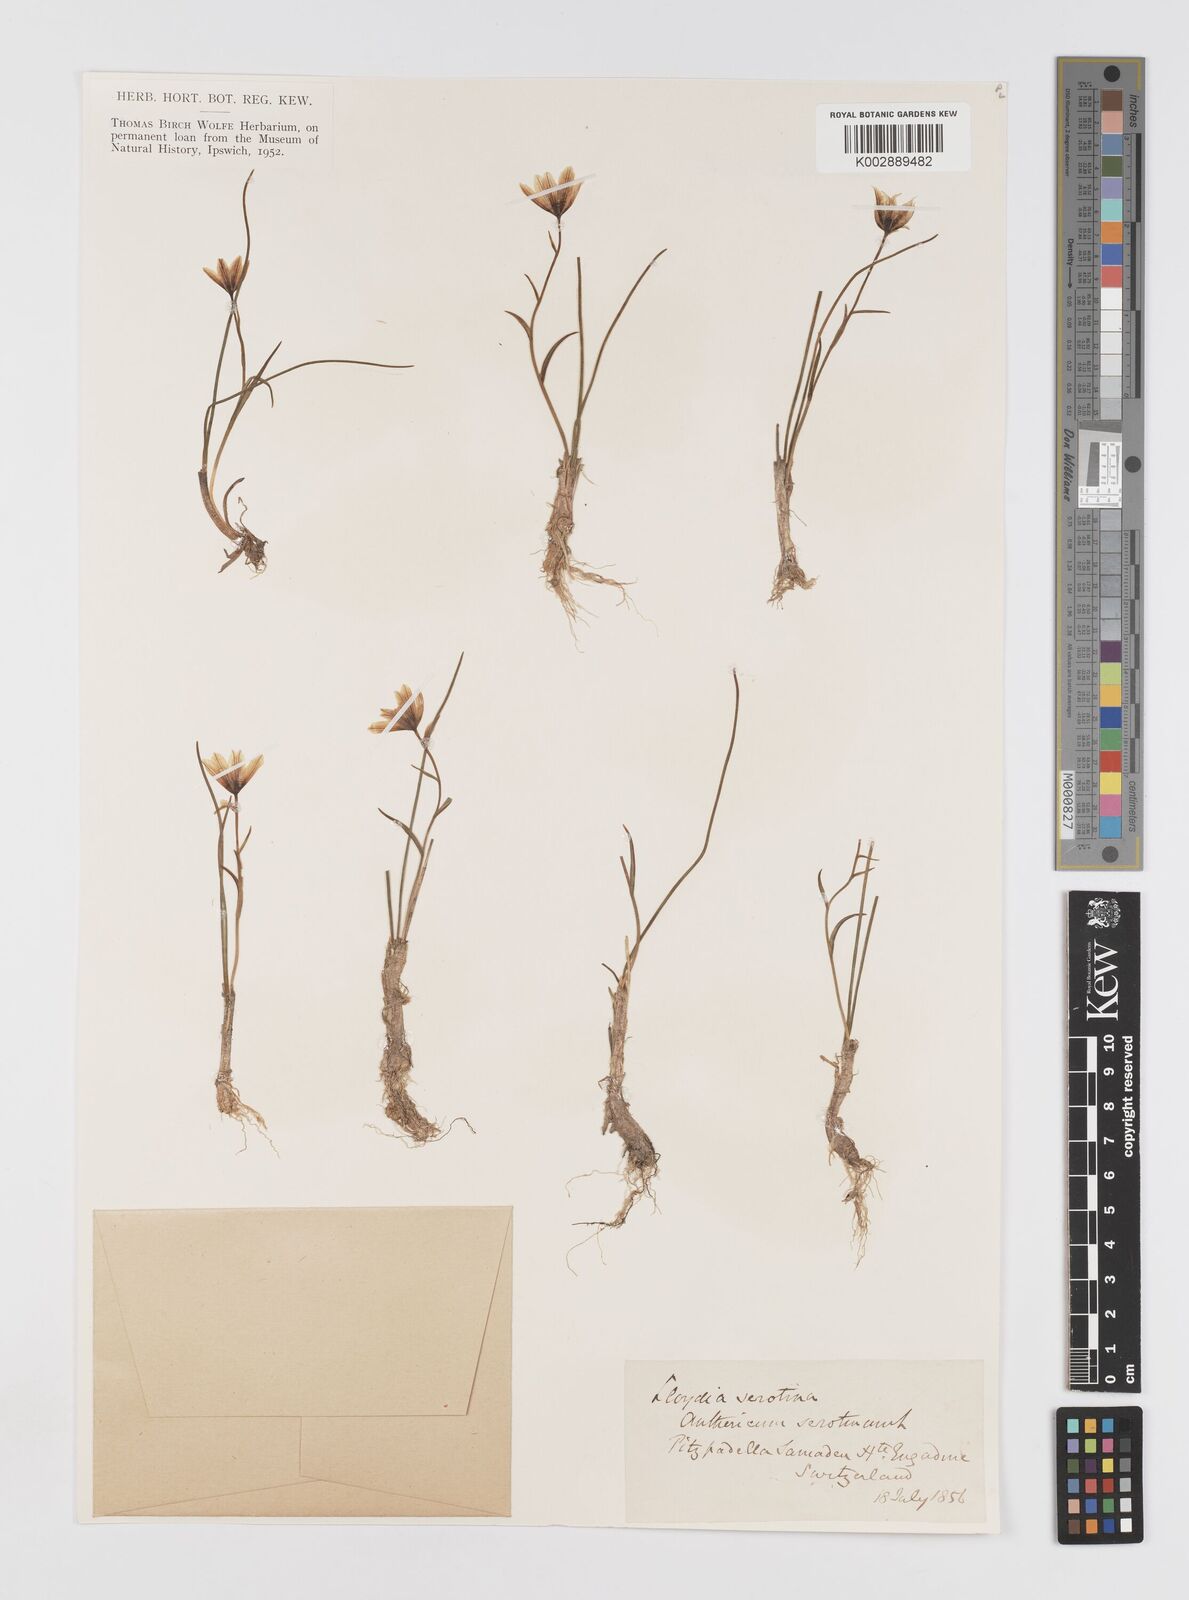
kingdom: Plantae
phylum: Tracheophyta
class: Liliopsida
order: Liliales
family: Liliaceae
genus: Gagea
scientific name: Gagea
